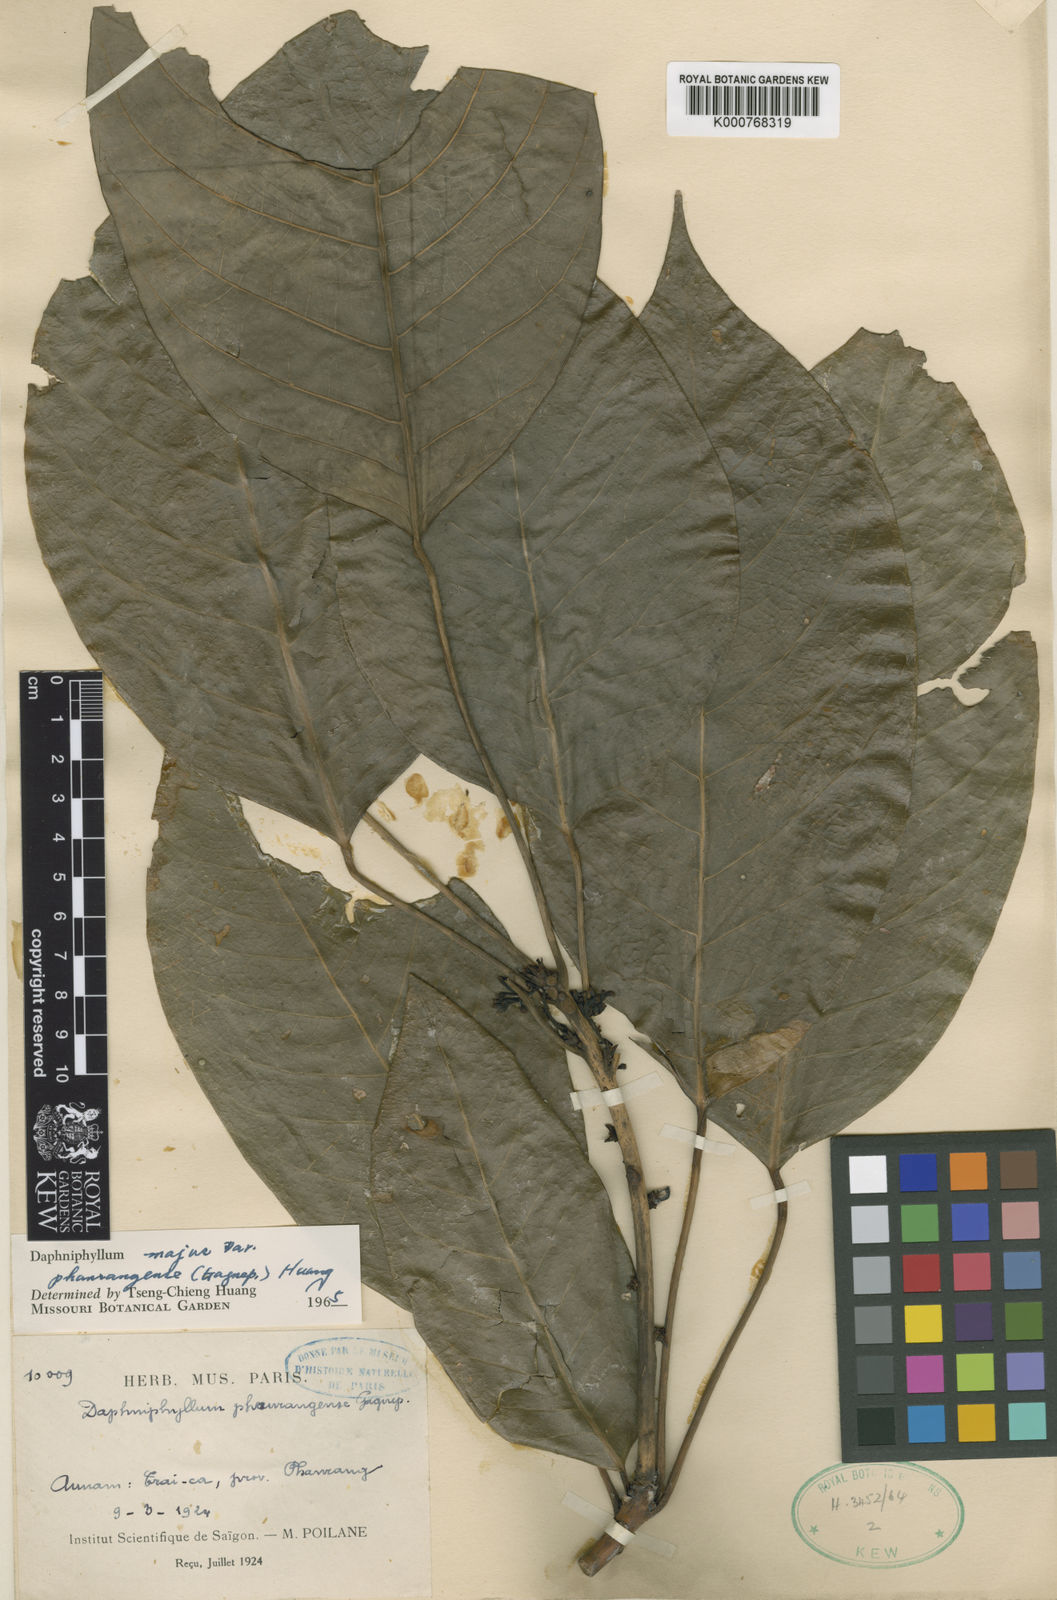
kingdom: Plantae
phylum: Tracheophyta
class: Magnoliopsida
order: Saxifragales
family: Daphniphyllaceae
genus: Daphniphyllum
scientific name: Daphniphyllum majus
